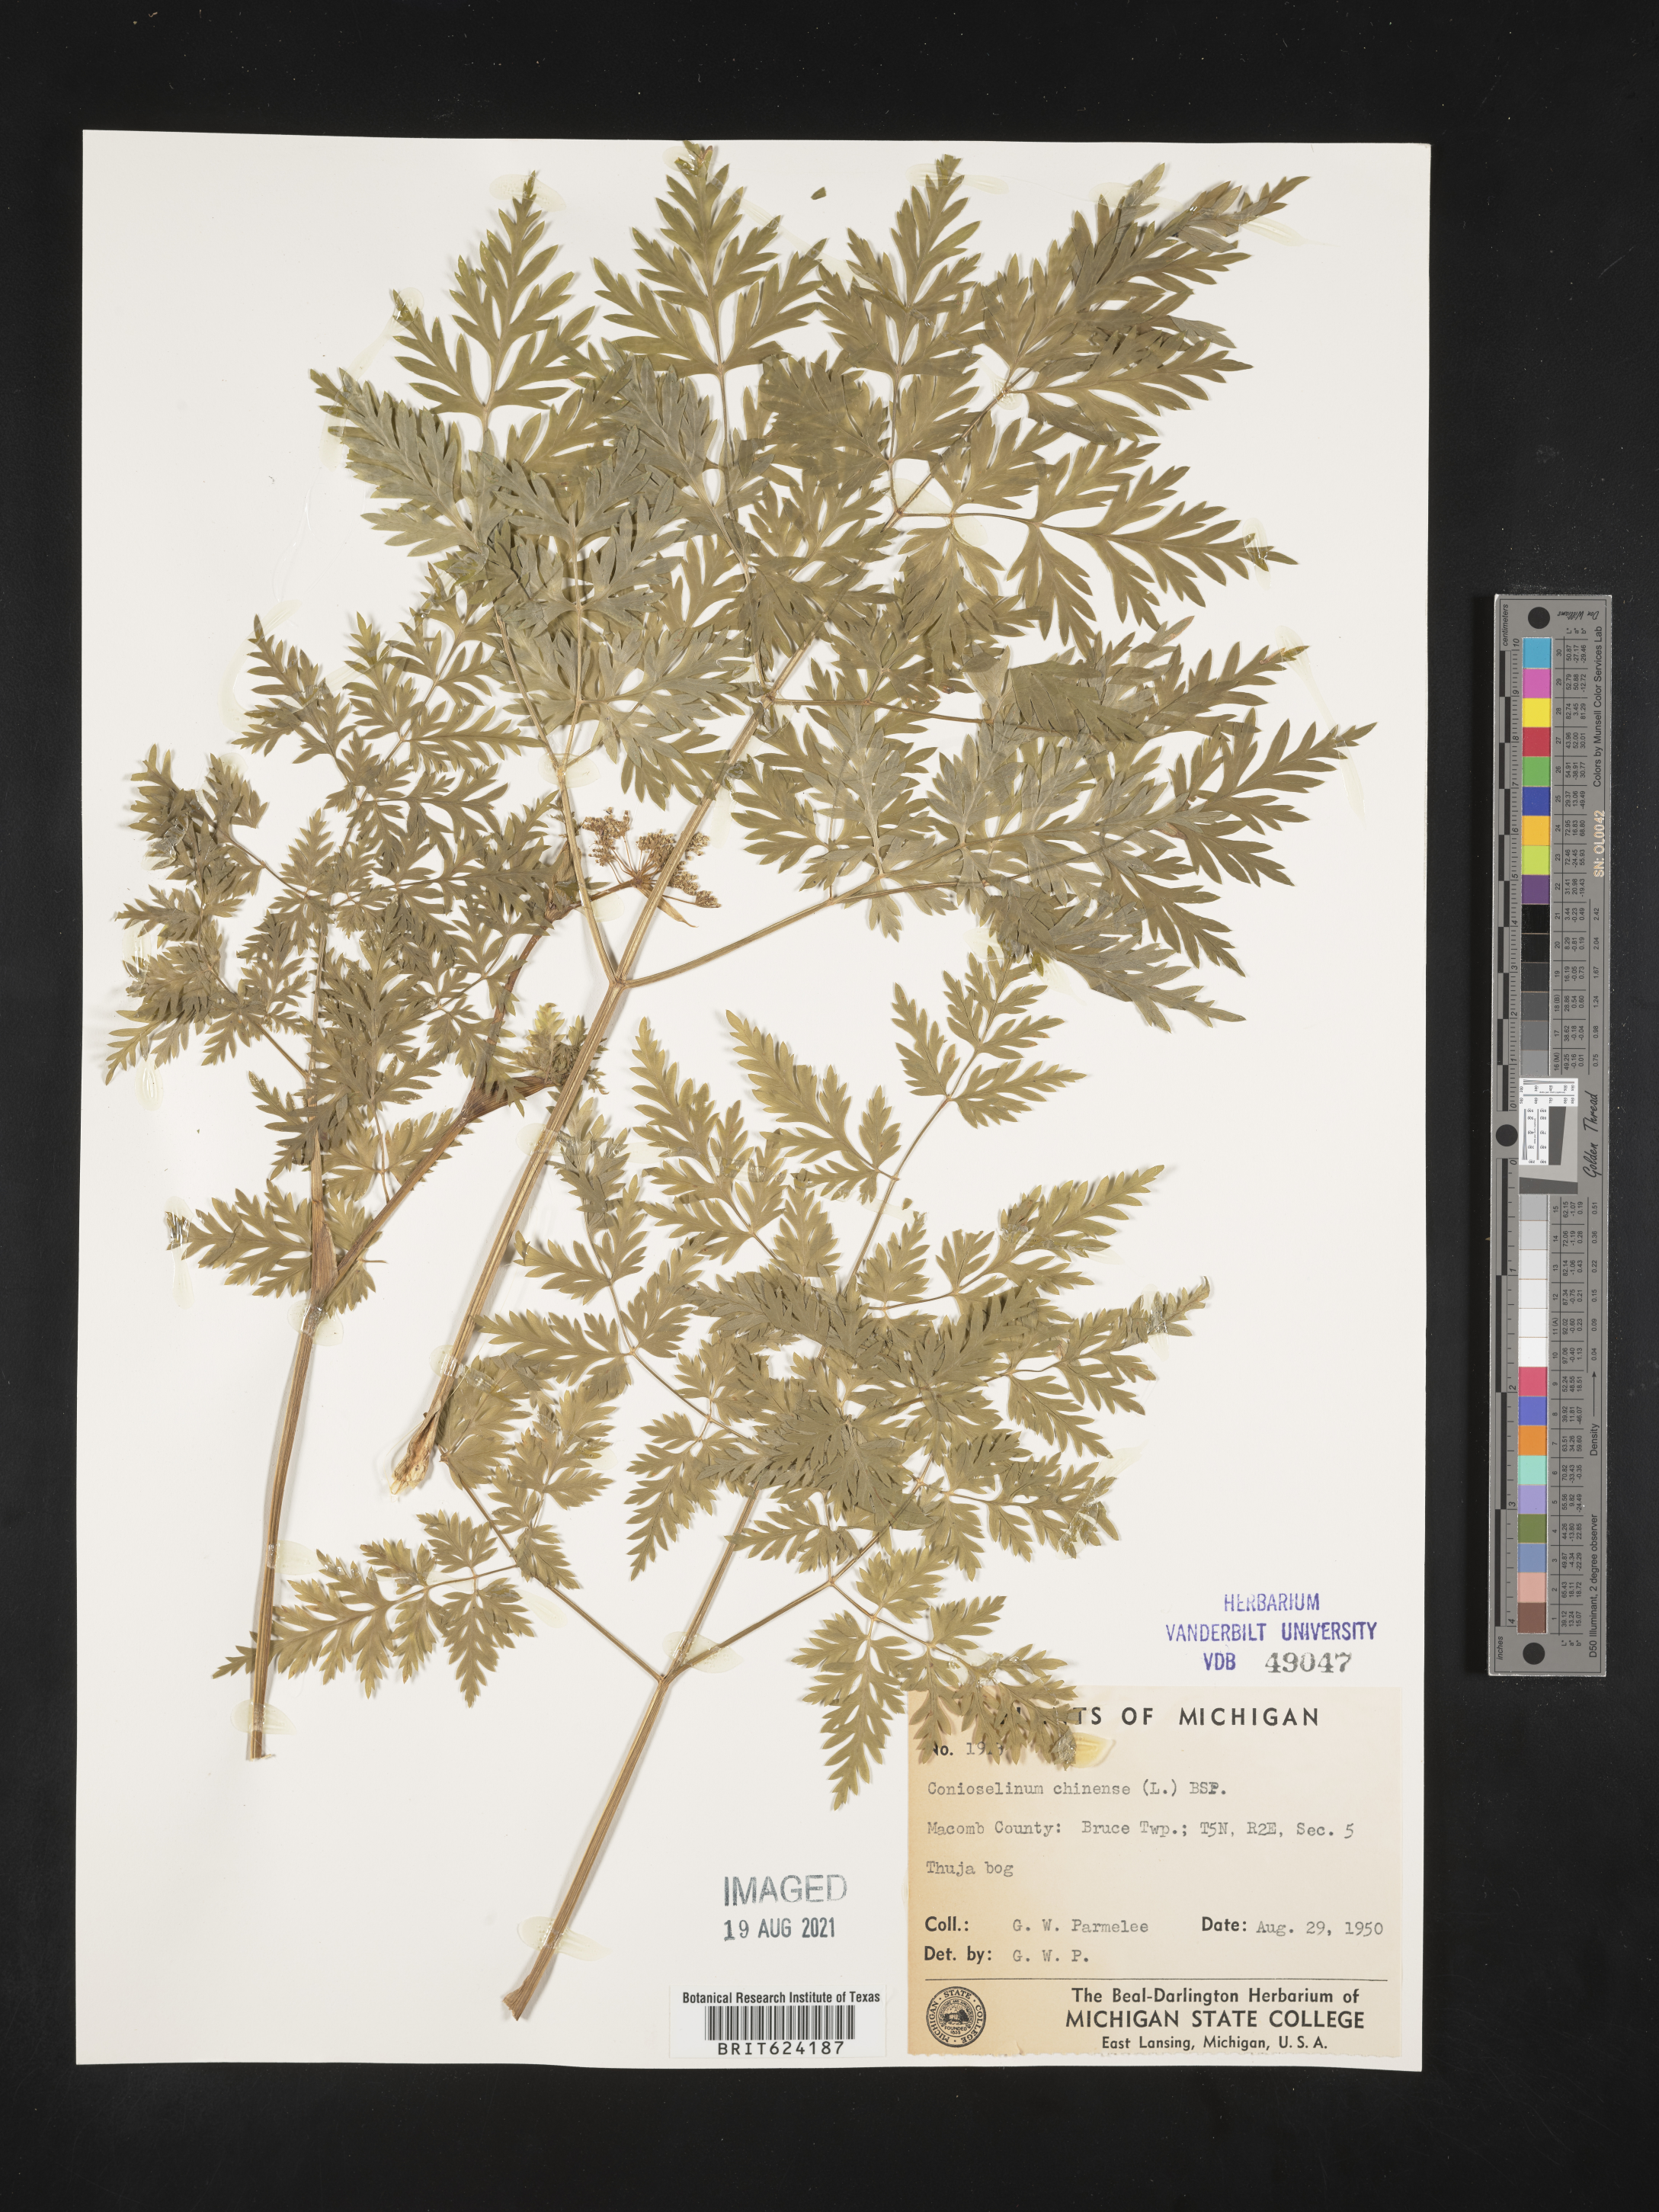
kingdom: Plantae
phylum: Tracheophyta
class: Magnoliopsida
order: Apiales
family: Apiaceae
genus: Conioselinum
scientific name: Conioselinum
